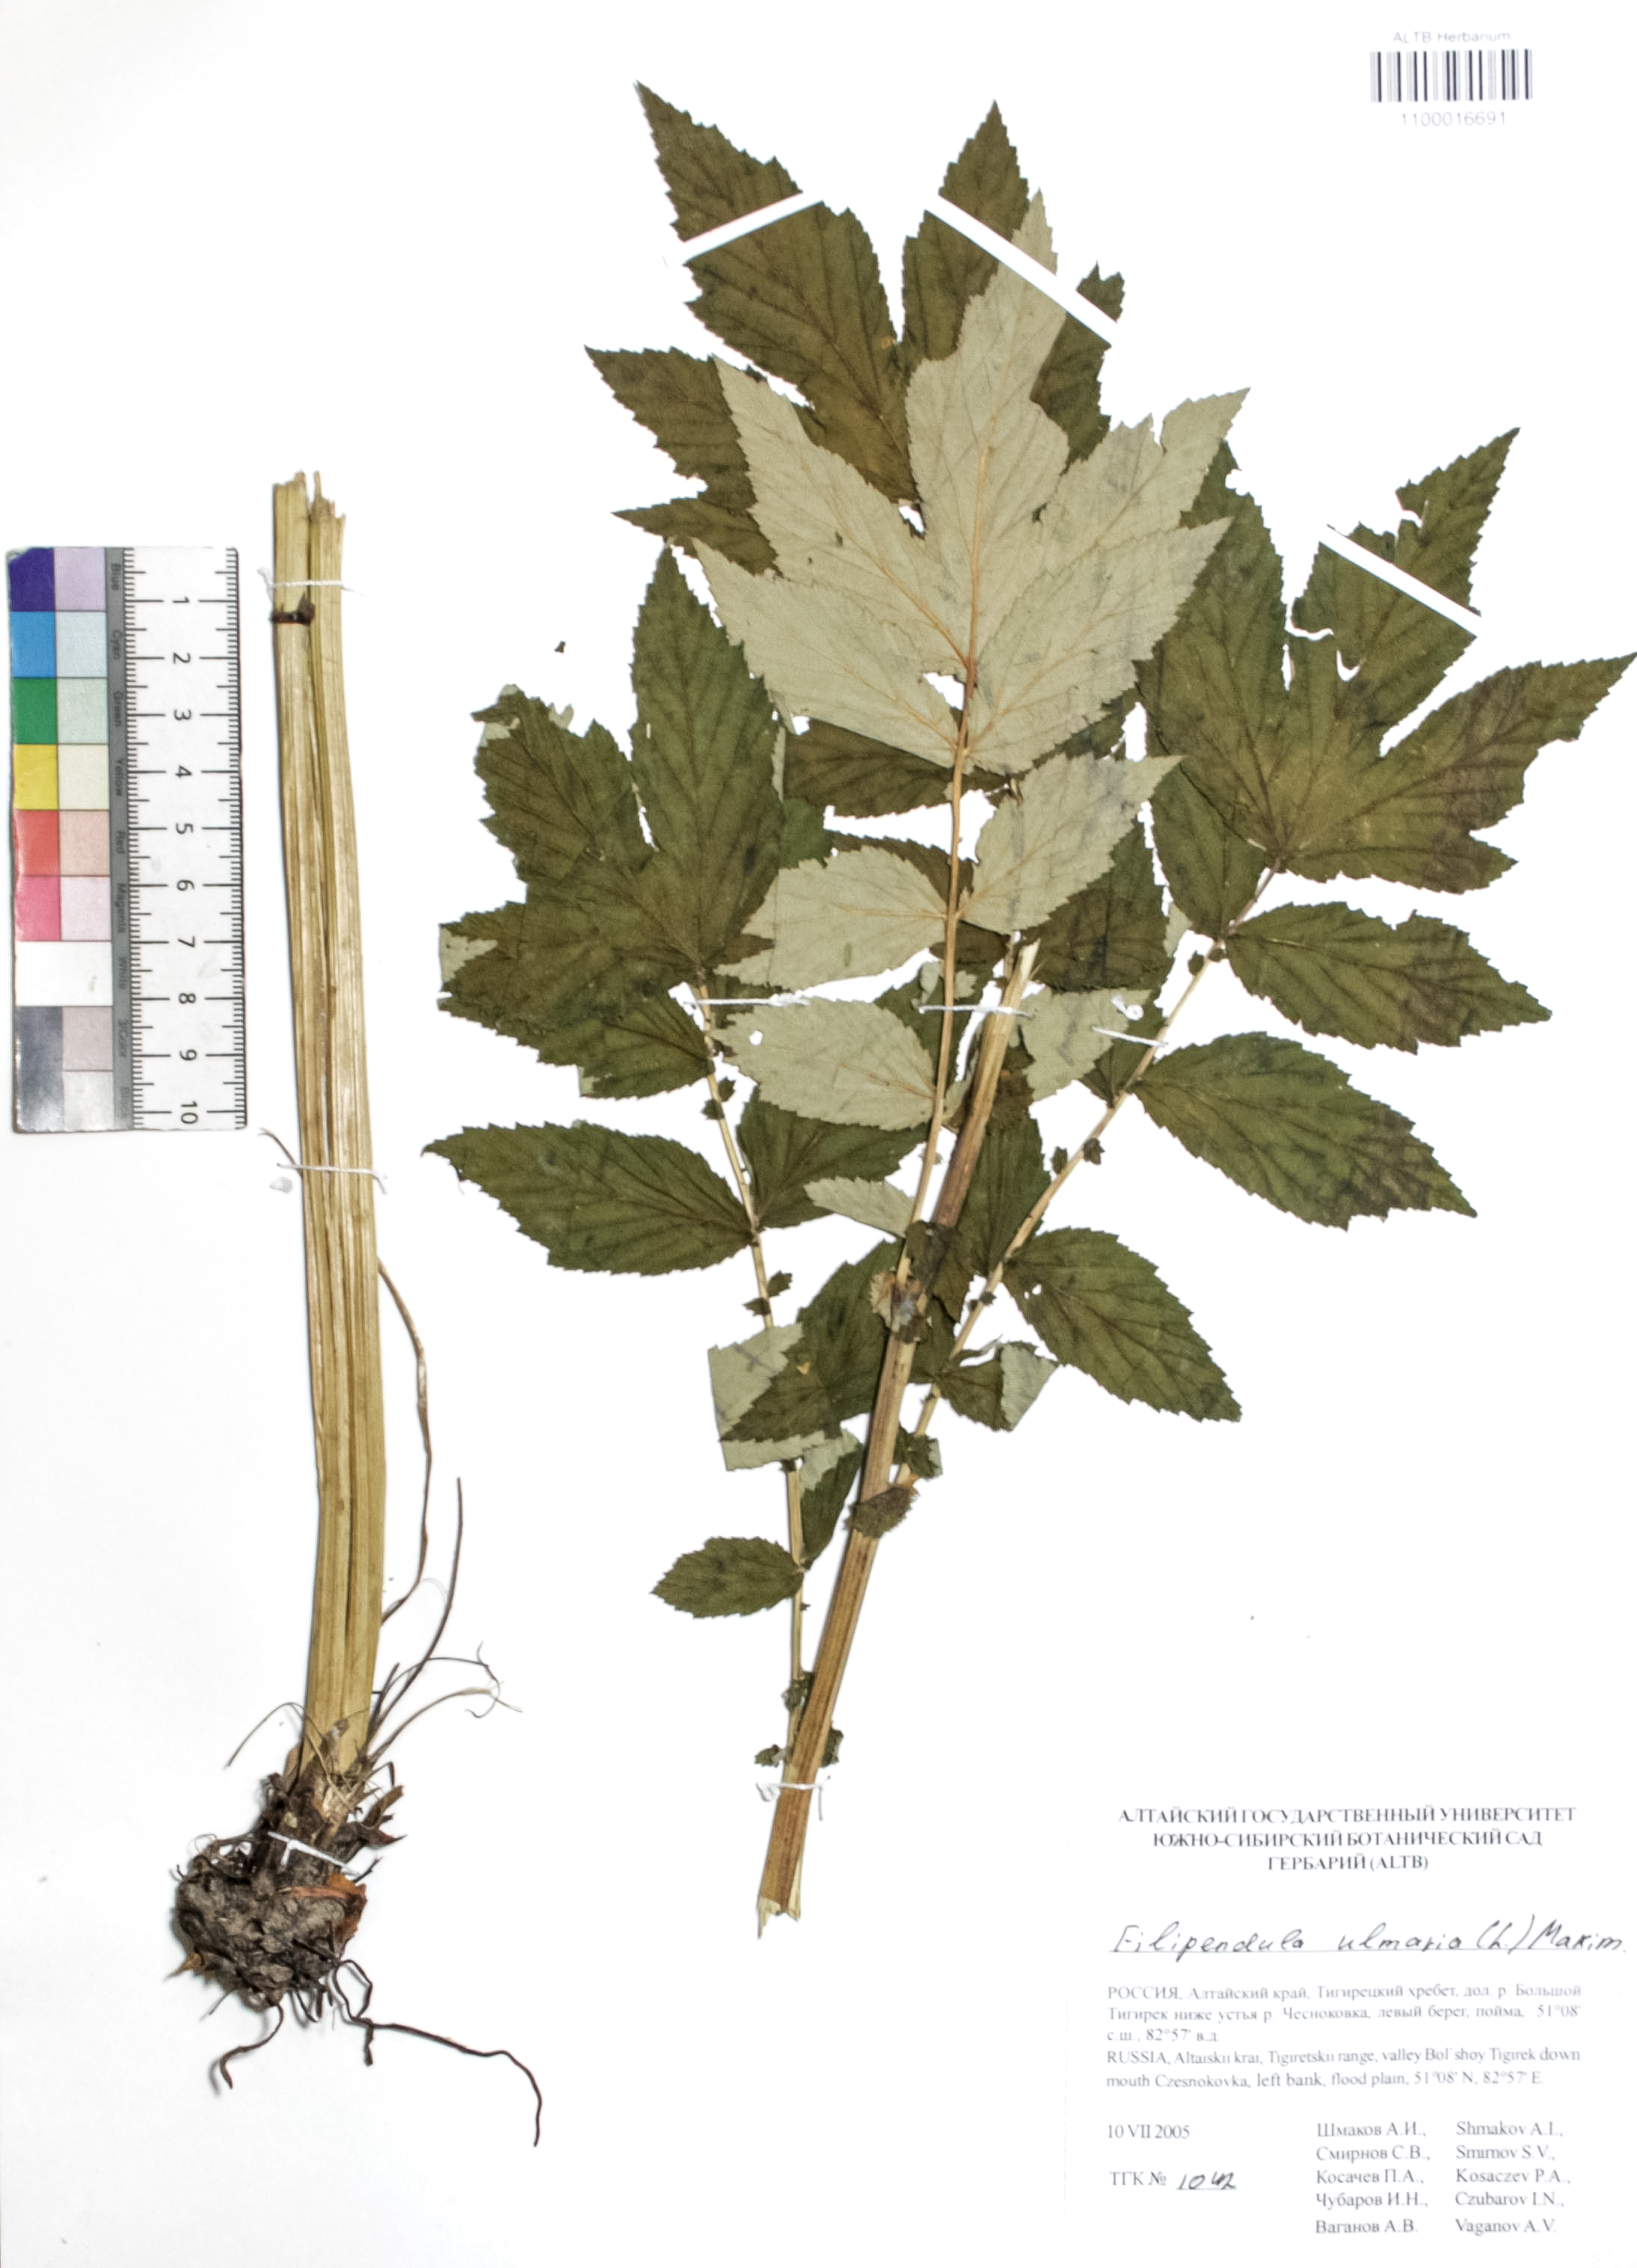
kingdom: Plantae
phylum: Tracheophyta
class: Magnoliopsida
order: Rosales
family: Rosaceae
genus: Filipendula
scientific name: Filipendula ulmaria
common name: Meadowsweet
